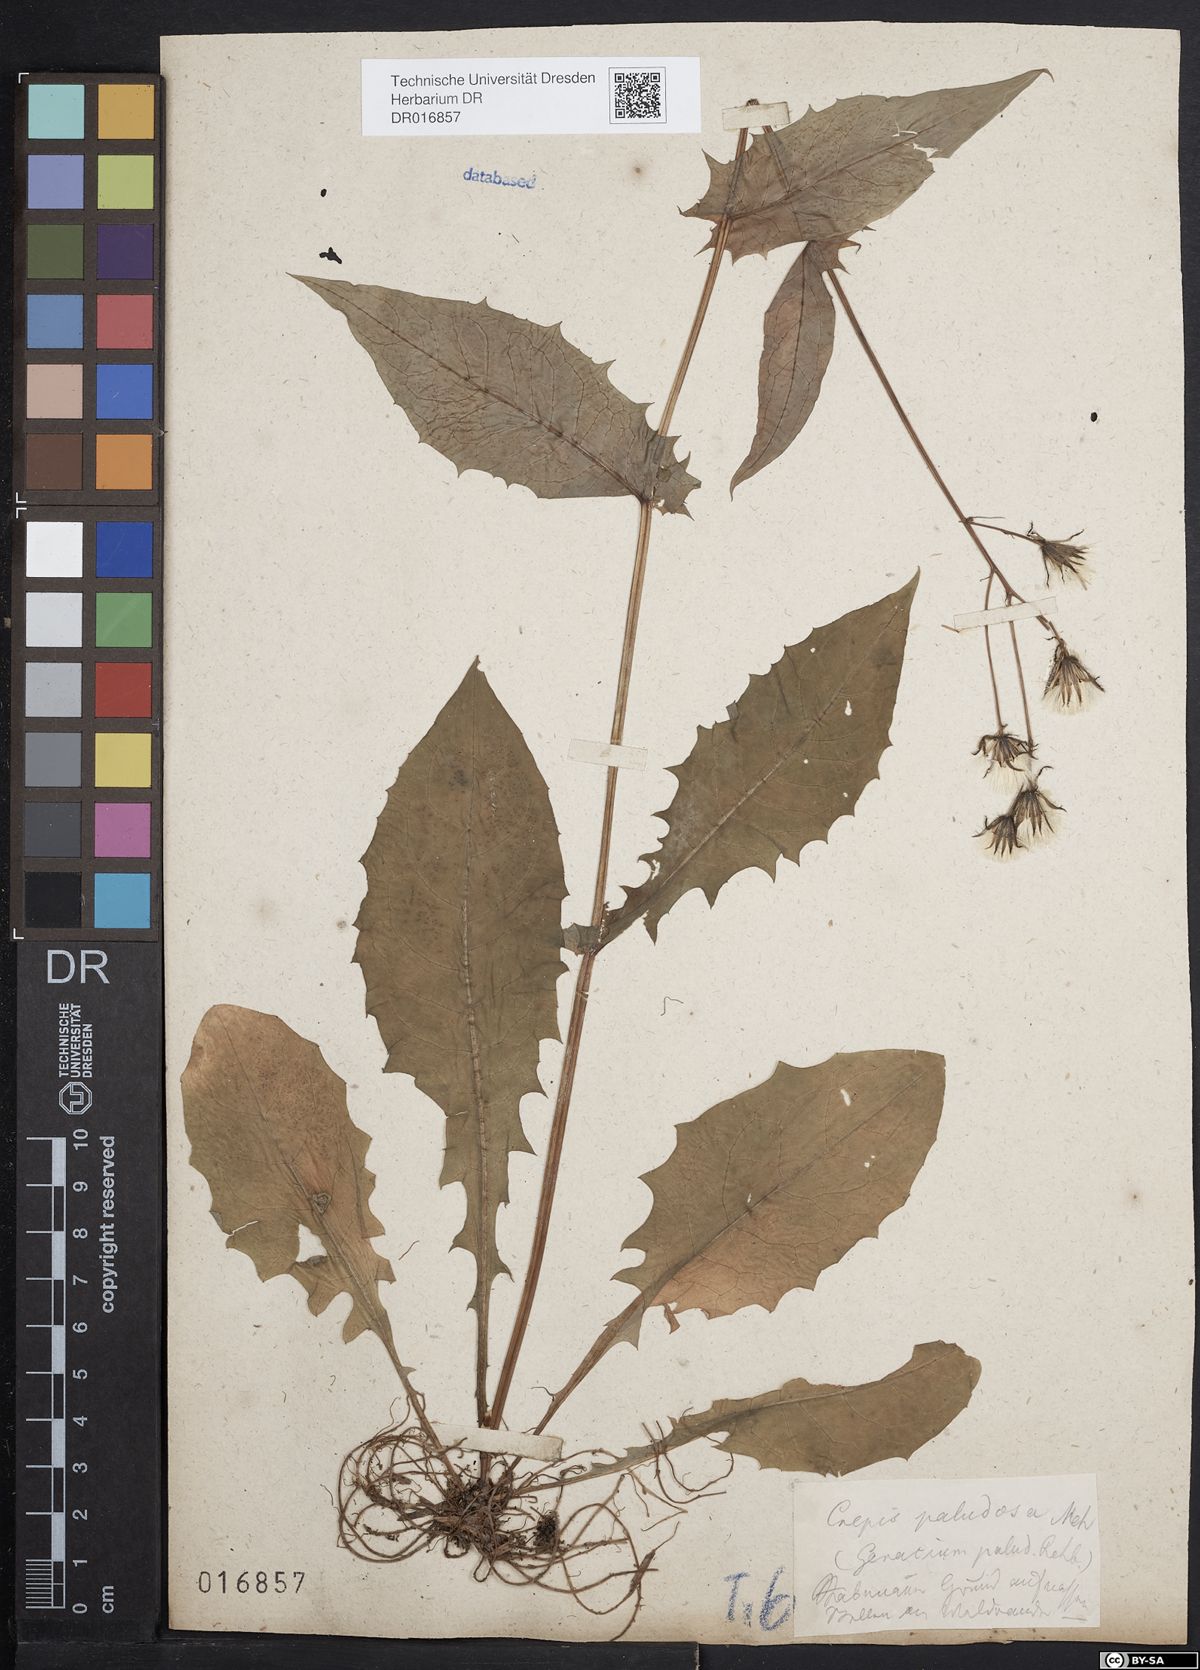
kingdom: Plantae
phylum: Tracheophyta
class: Magnoliopsida
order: Asterales
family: Asteraceae
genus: Crepis
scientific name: Crepis paludosa
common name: Marsh hawk's-beard
